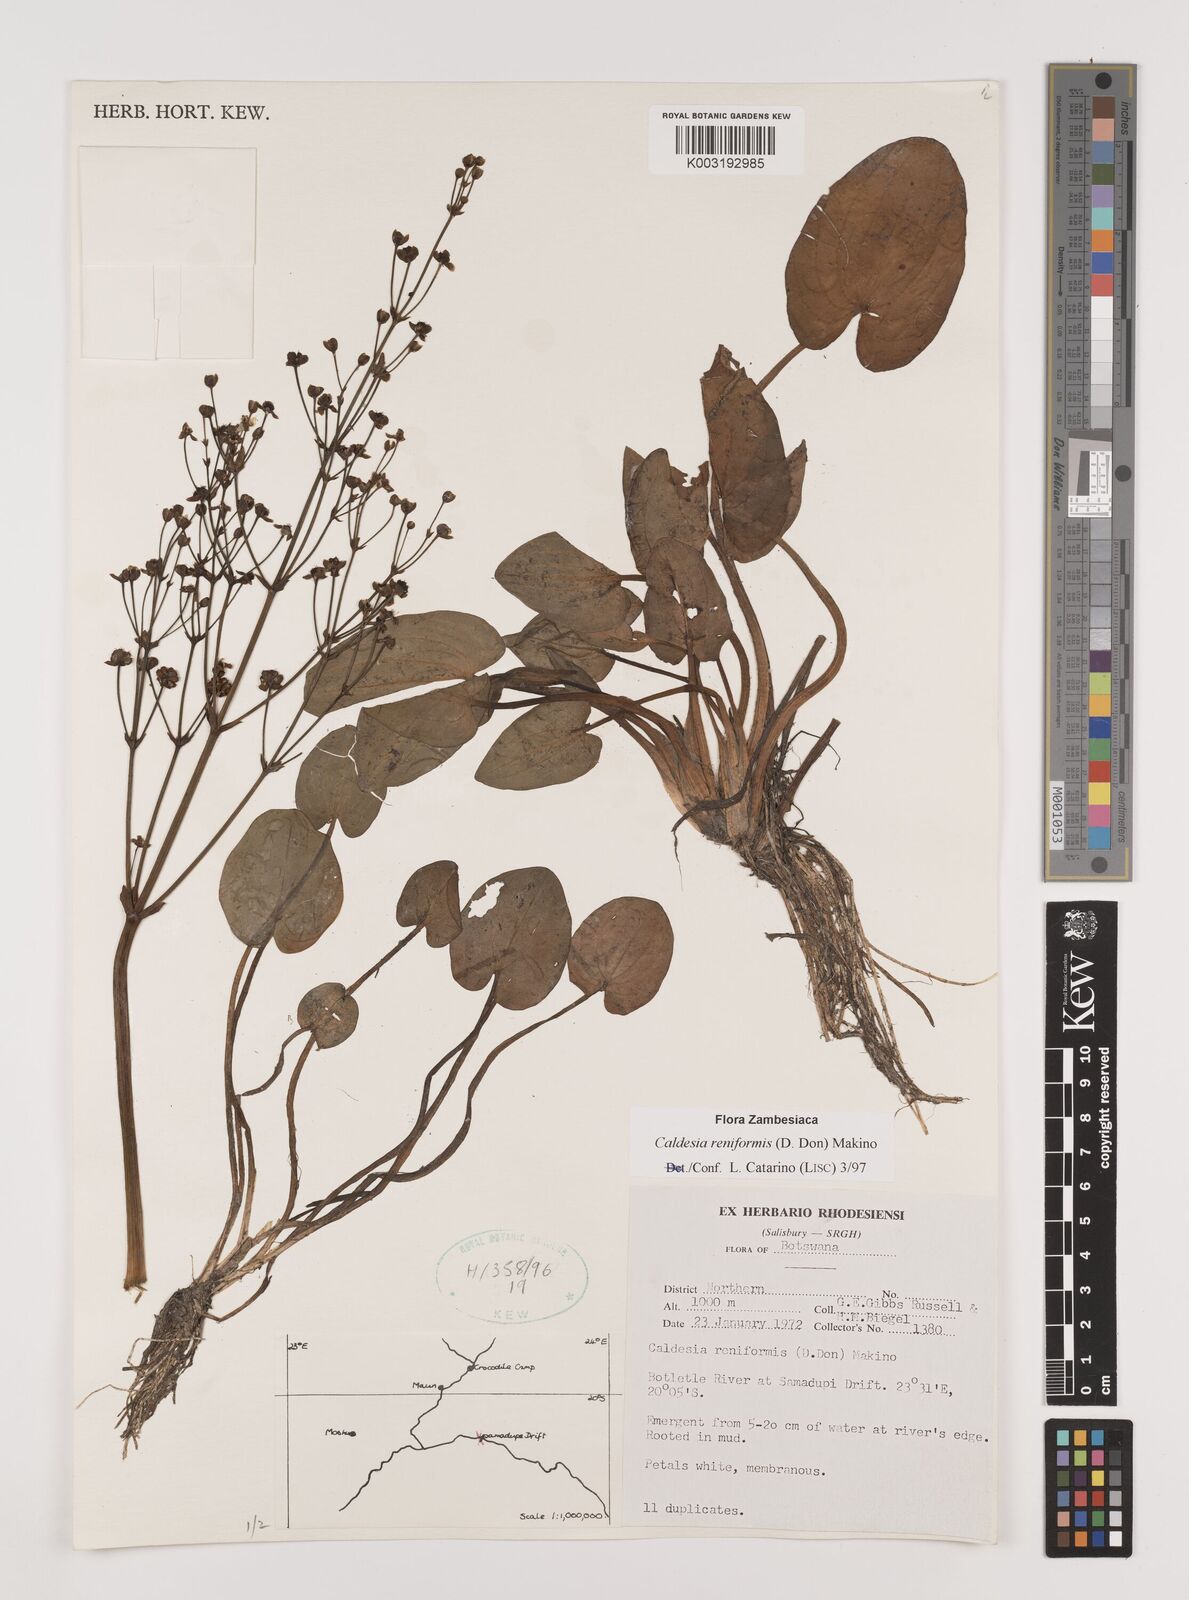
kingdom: Plantae
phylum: Tracheophyta
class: Liliopsida
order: Alismatales
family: Alismataceae
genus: Caldesia
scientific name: Caldesia parnassifolia
